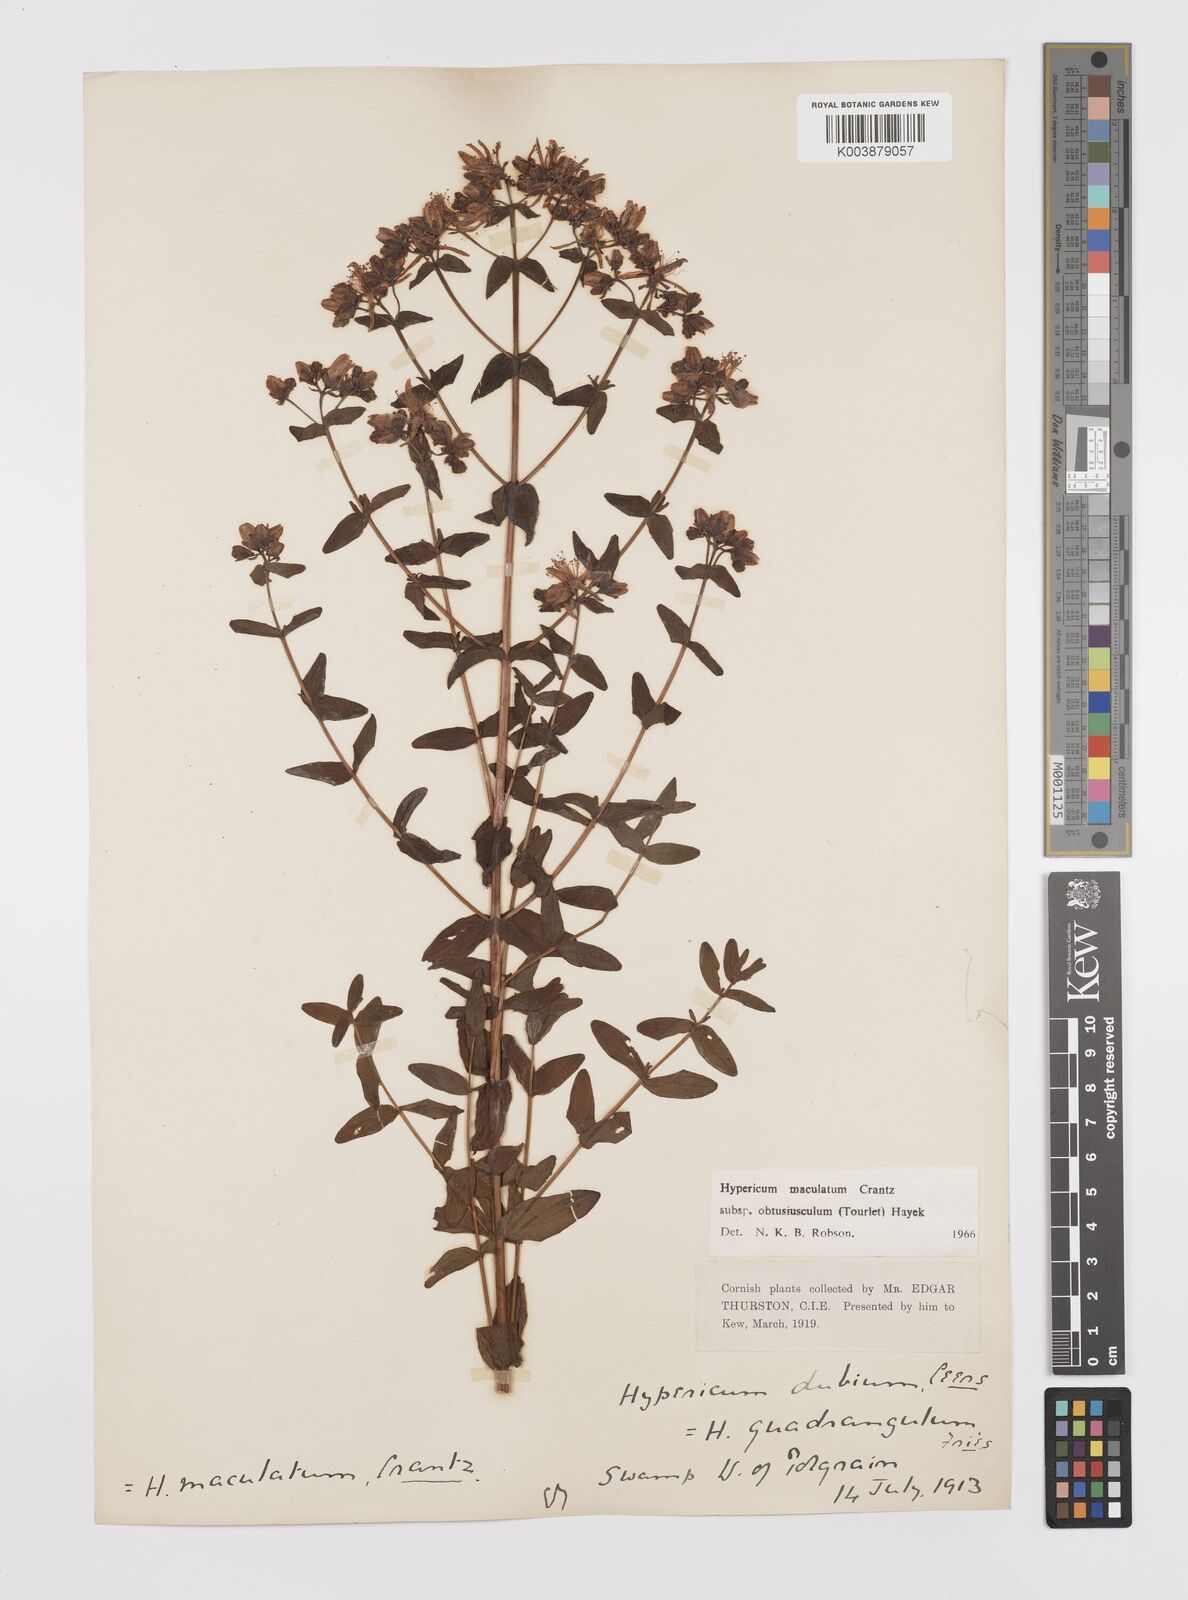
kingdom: Plantae
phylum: Tracheophyta
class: Magnoliopsida
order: Malpighiales
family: Hypericaceae
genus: Hypericum
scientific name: Hypericum dubium
